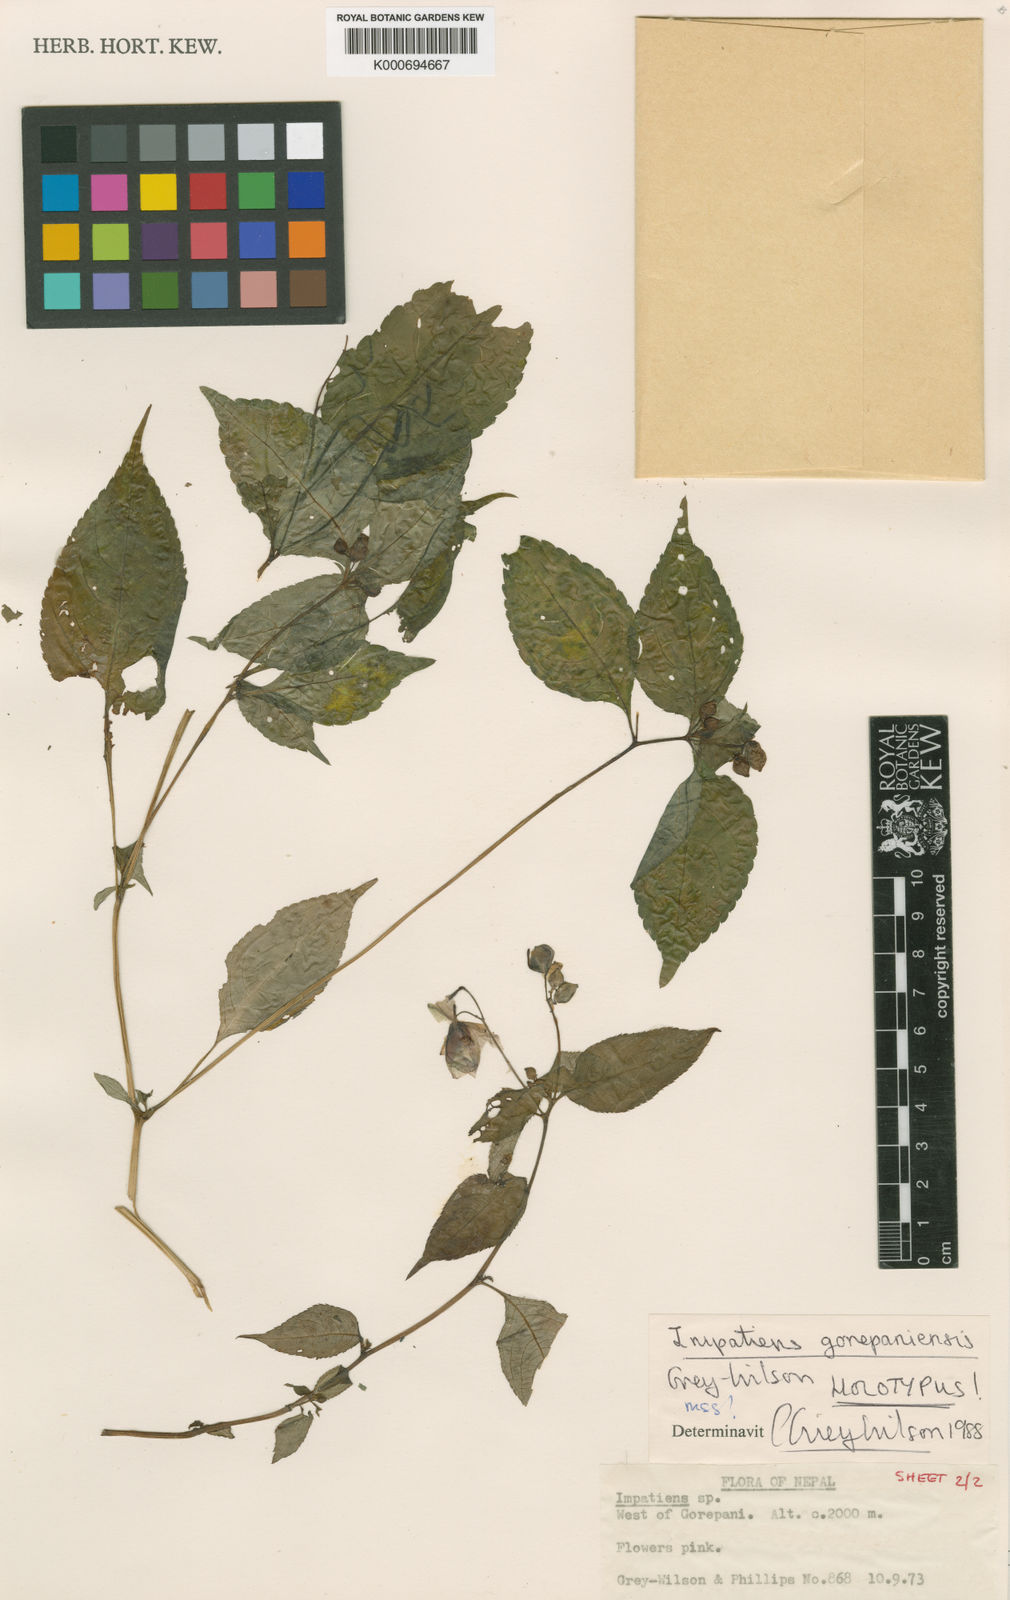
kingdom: Plantae
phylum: Tracheophyta
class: Magnoliopsida
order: Ericales
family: Balsaminaceae
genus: Impatiens
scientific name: Impatiens cymbifera
